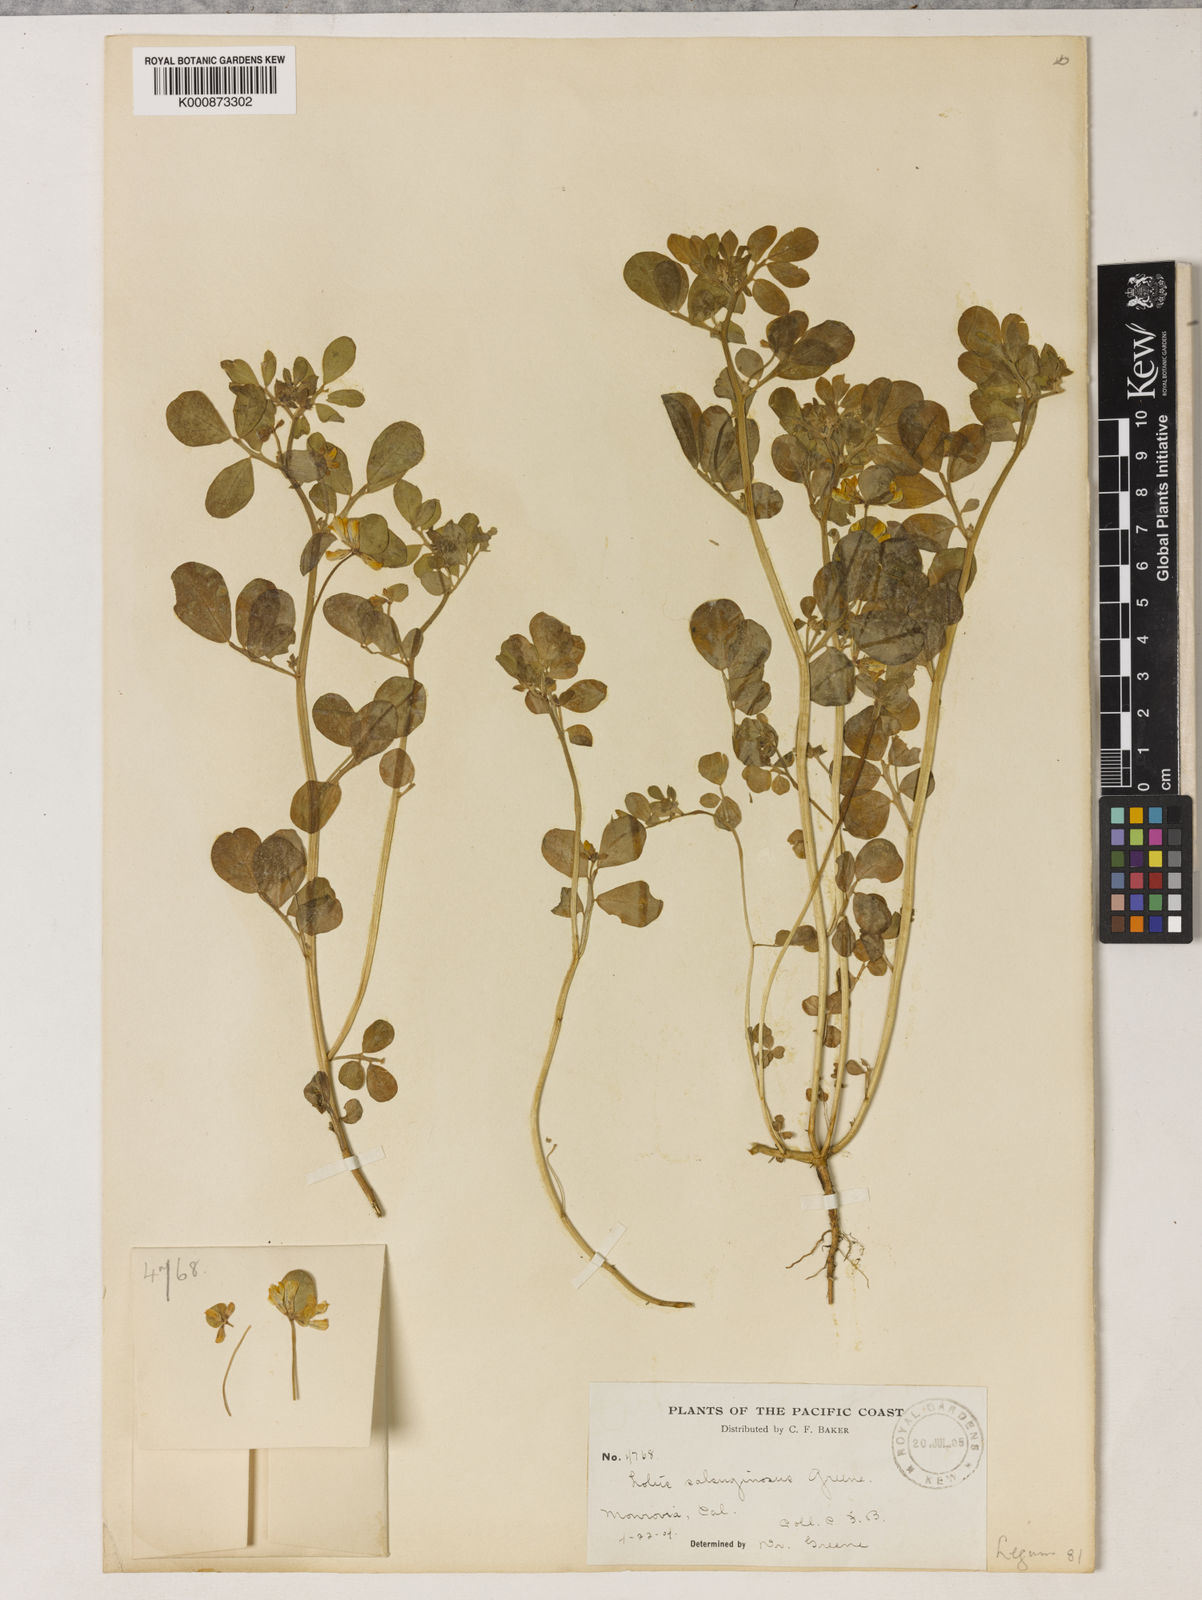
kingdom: Plantae
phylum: Tracheophyta
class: Magnoliopsida
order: Fabales
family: Fabaceae
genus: Acmispon
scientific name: Acmispon maritimus
